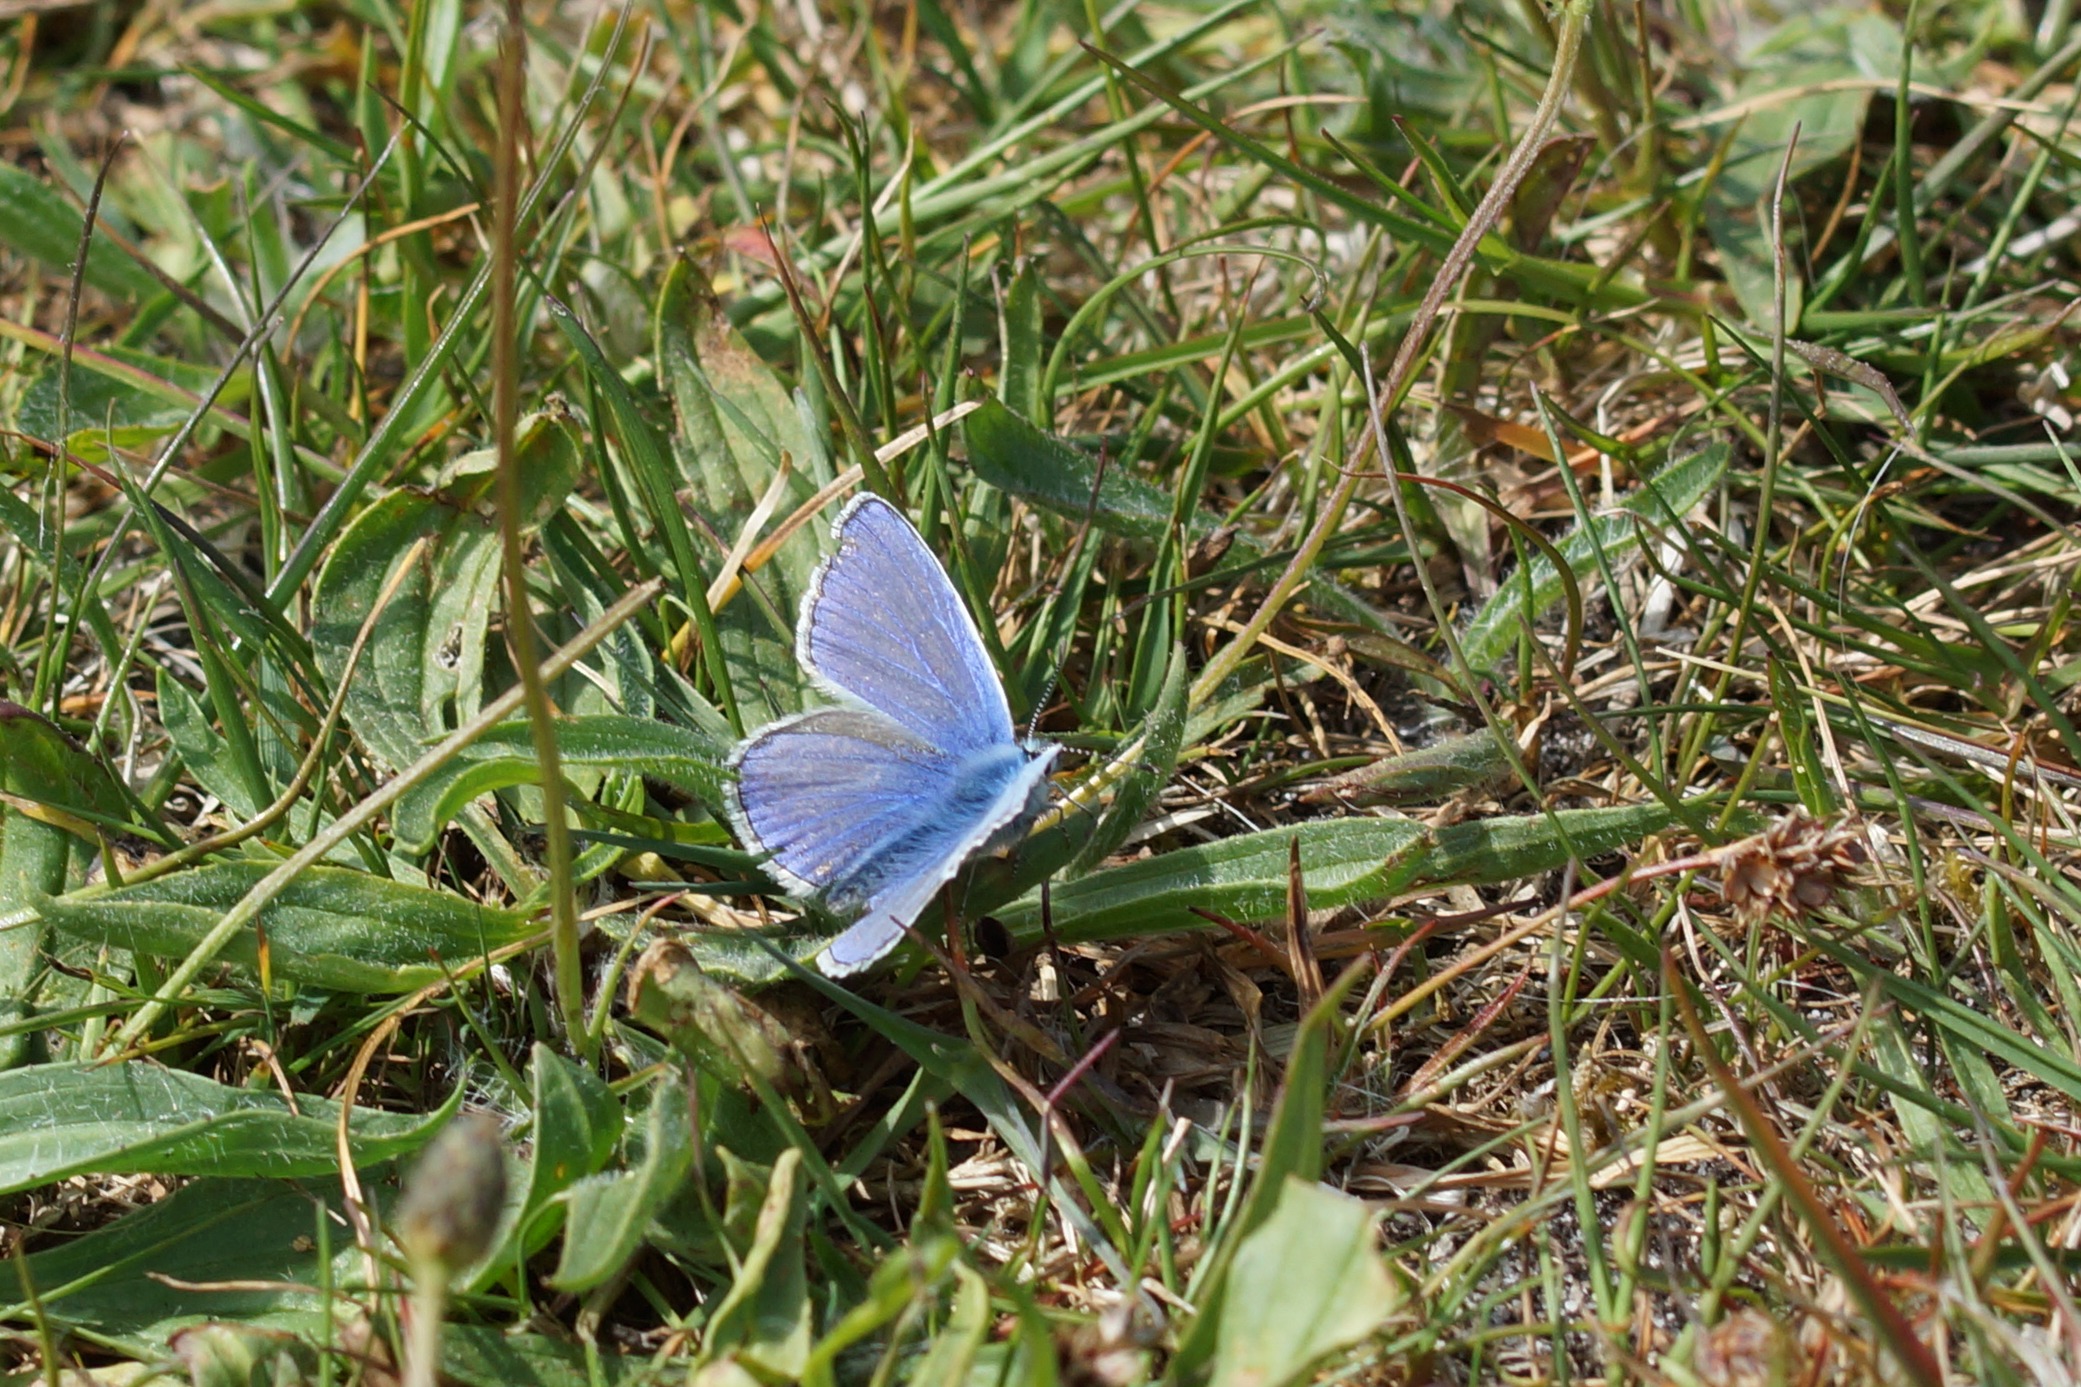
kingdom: Animalia
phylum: Arthropoda
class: Insecta
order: Lepidoptera
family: Lycaenidae
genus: Polyommatus
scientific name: Polyommatus icarus
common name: Almindelig blåfugl
